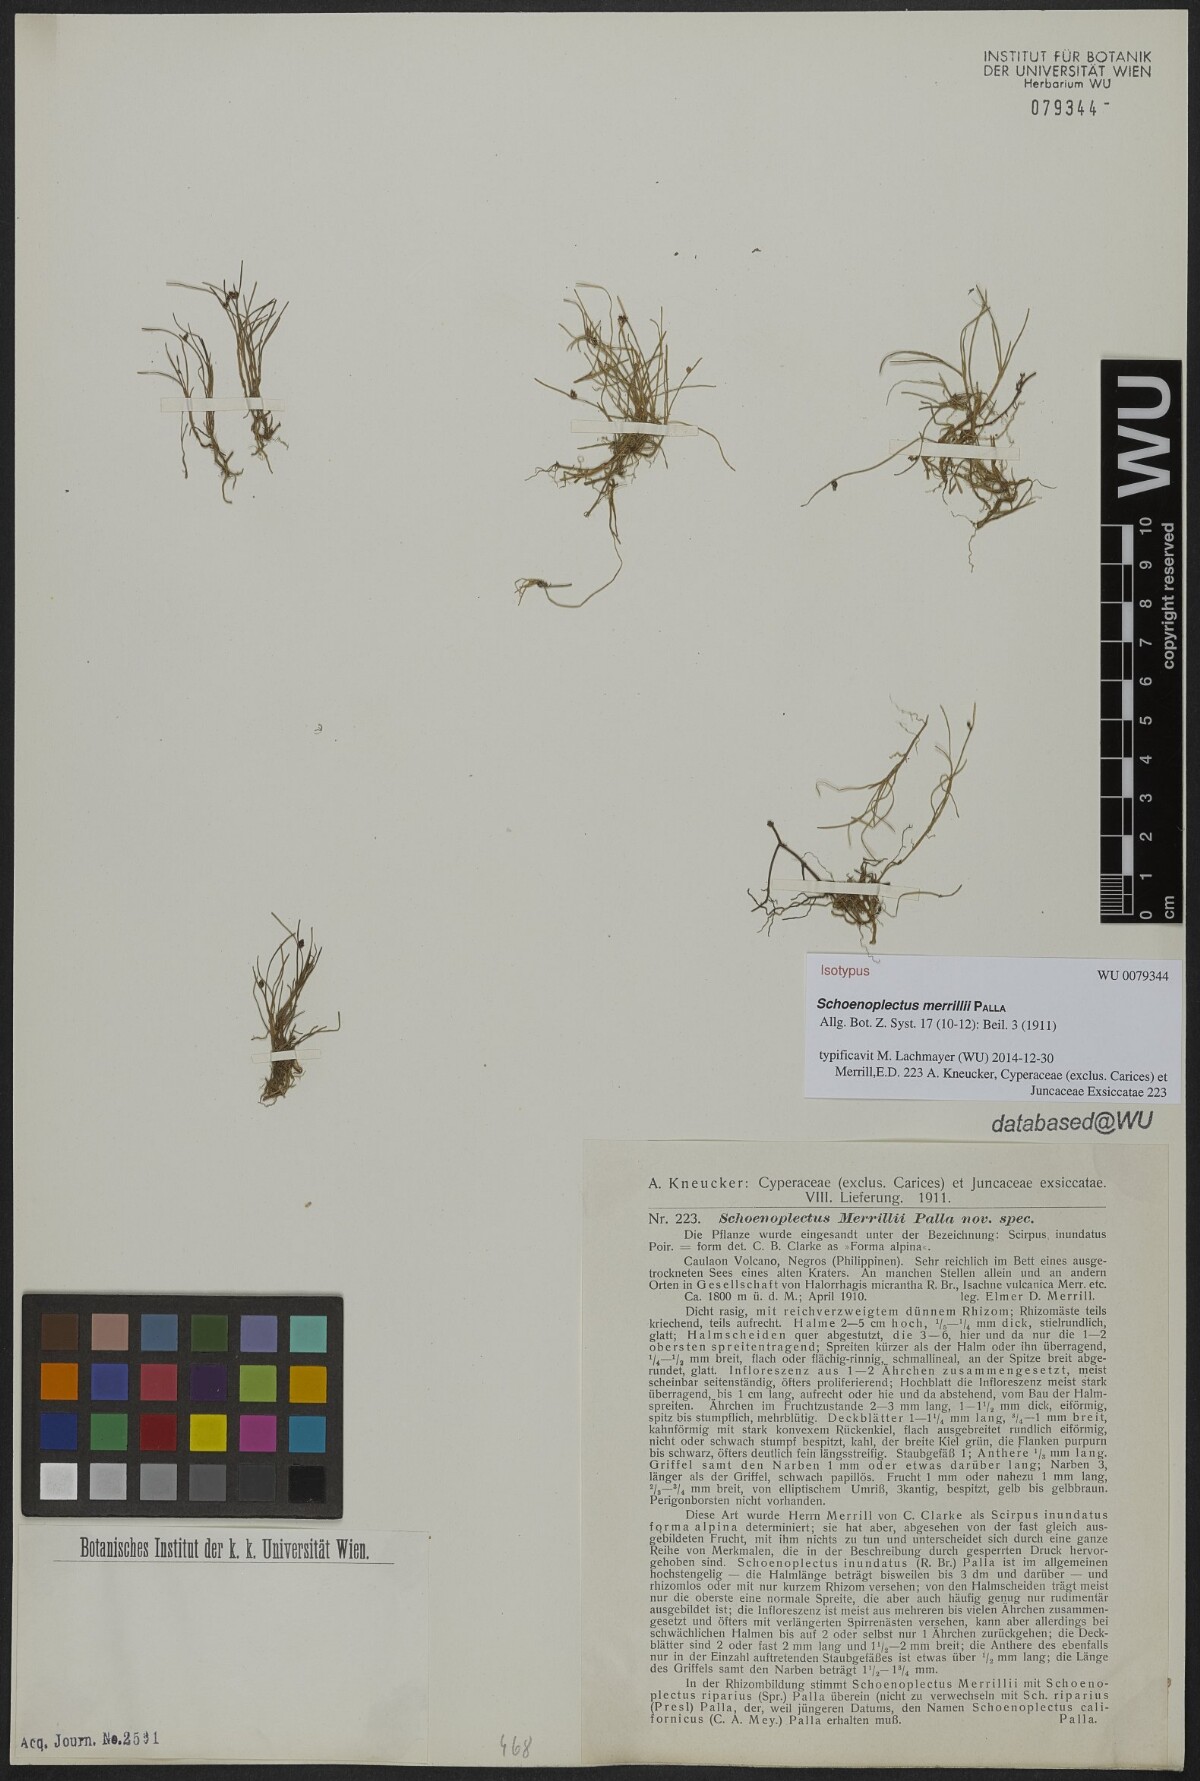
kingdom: Plantae
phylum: Tracheophyta
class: Liliopsida
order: Poales
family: Cyperaceae
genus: Isolepis
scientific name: Isolepis subtilissima
